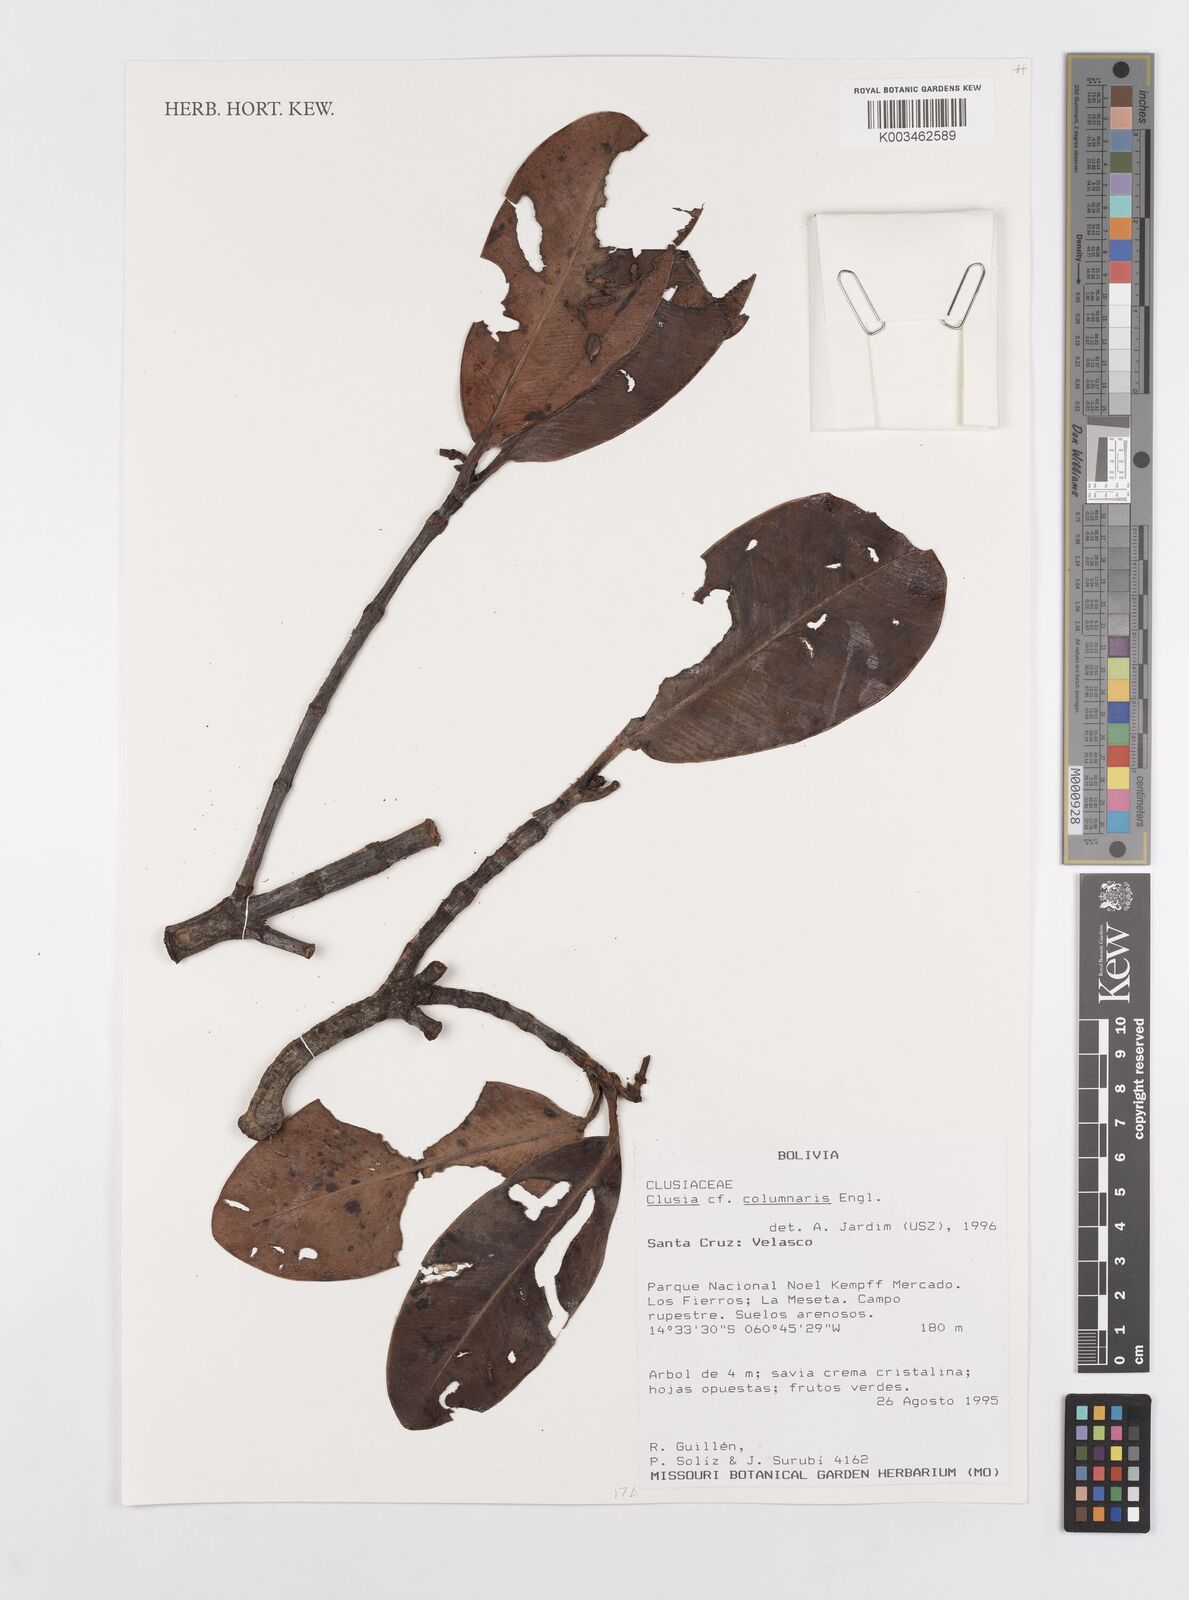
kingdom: Plantae
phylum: Tracheophyta
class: Magnoliopsida
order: Malpighiales
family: Clusiaceae
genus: Clusia
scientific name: Clusia columnaris
